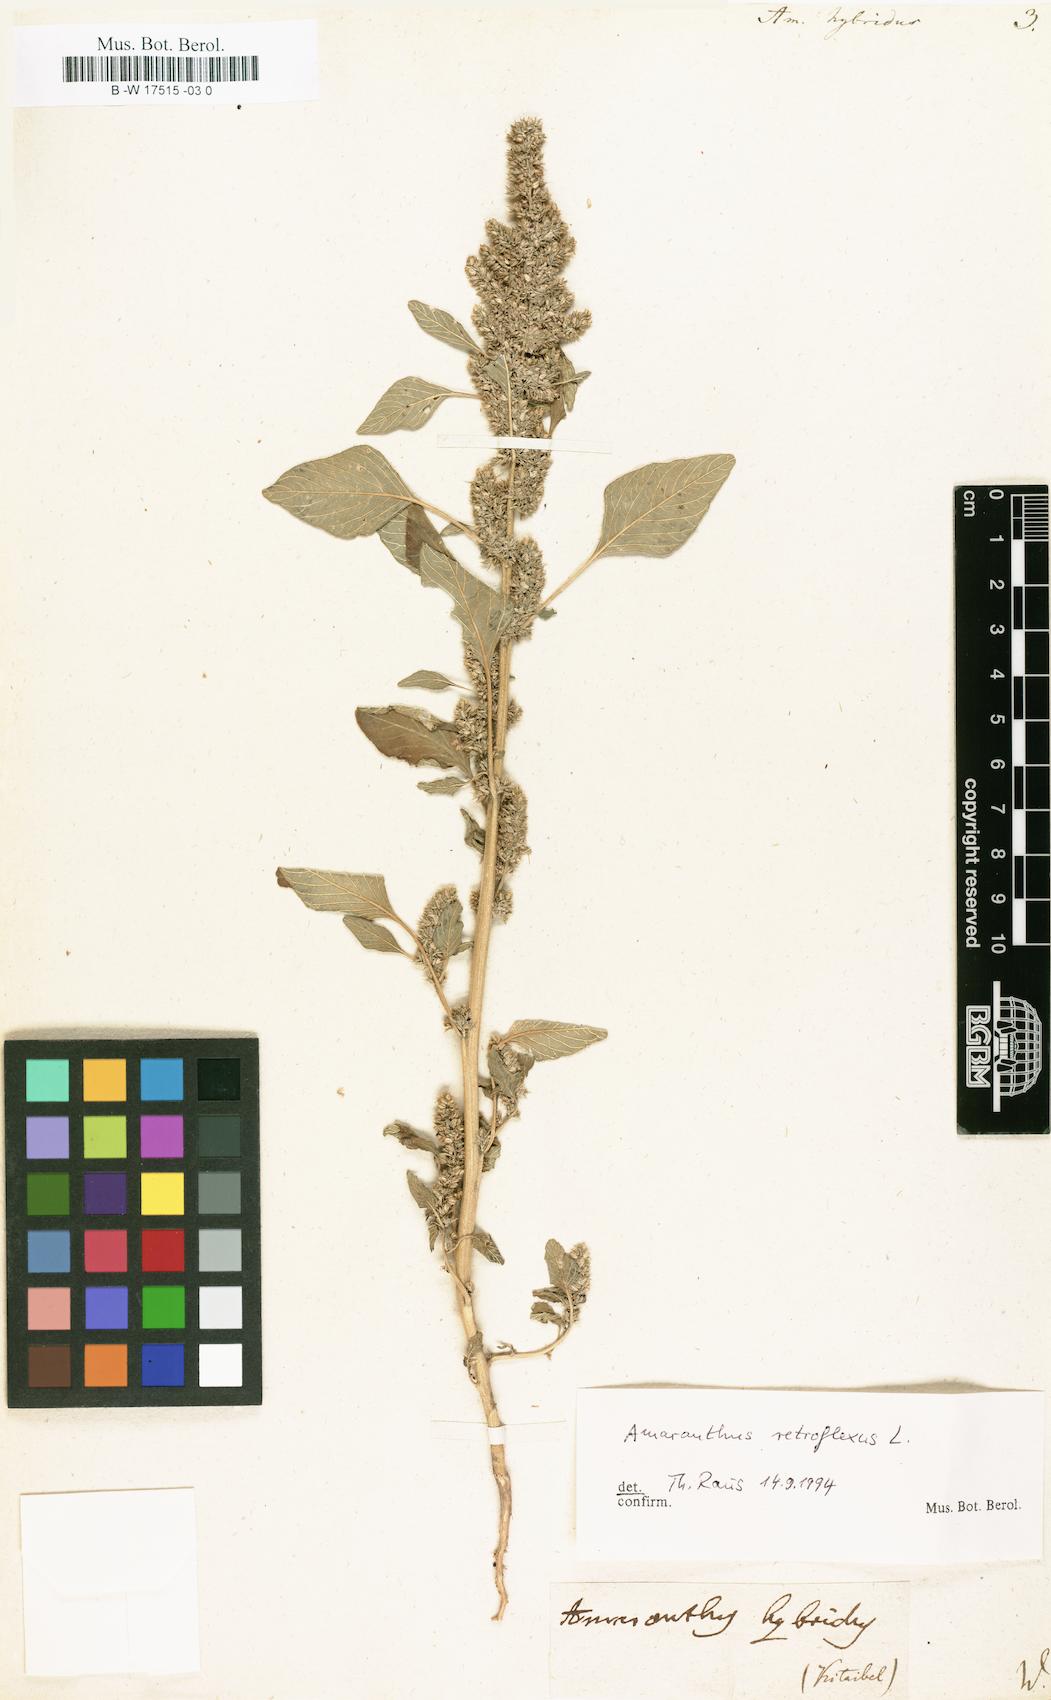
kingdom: Plantae
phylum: Tracheophyta
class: Magnoliopsida
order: Caryophyllales
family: Amaranthaceae
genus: Amaranthus
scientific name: Amaranthus hybridus
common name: Green amaranth
